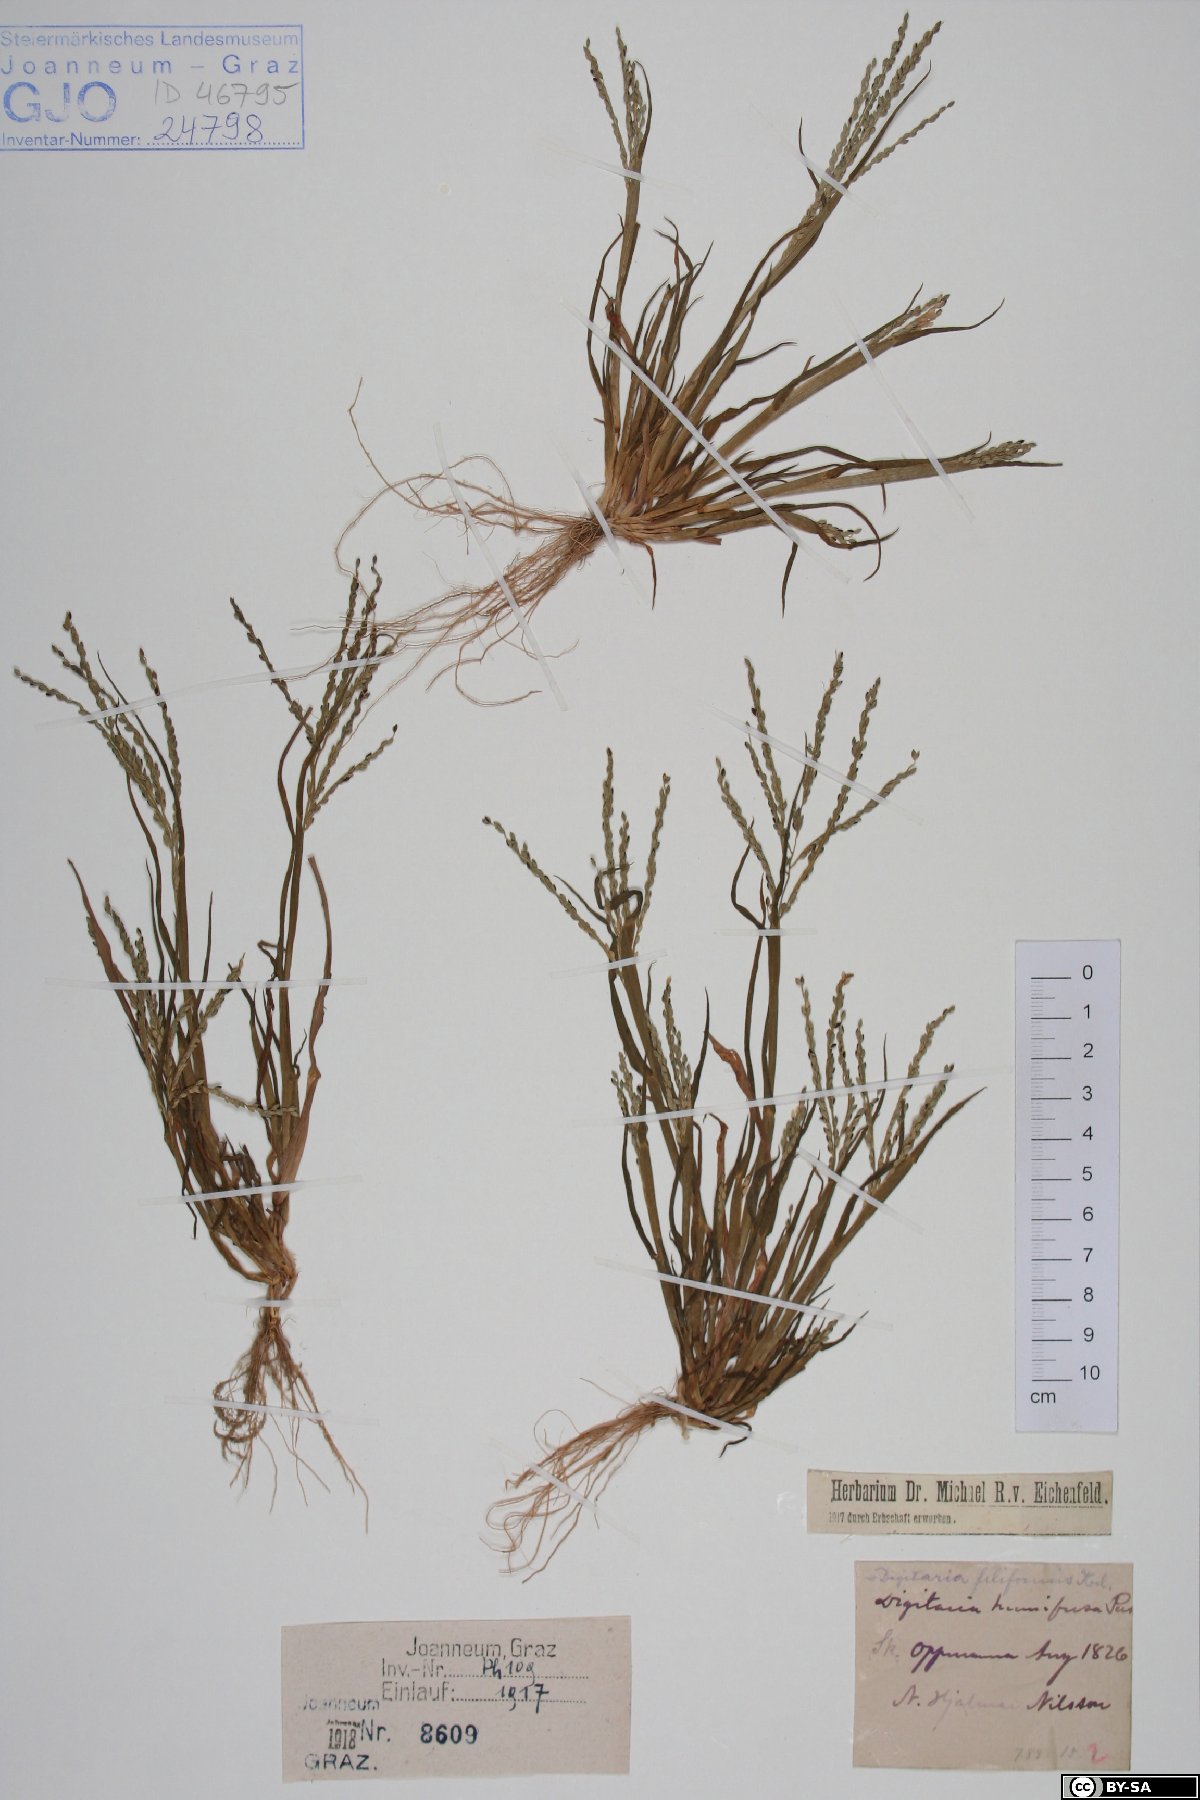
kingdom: Plantae
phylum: Tracheophyta
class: Liliopsida
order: Poales
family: Poaceae
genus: Digitaria
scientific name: Digitaria ischaemum
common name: Smooth crabgrass
